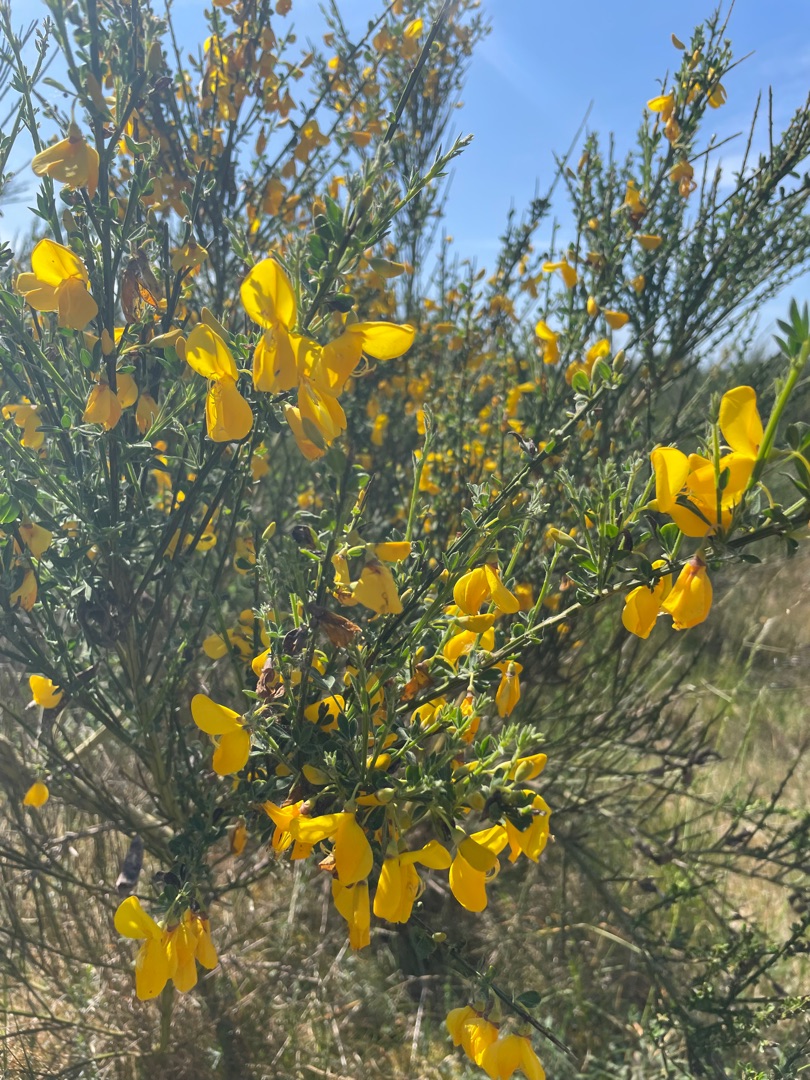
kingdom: Plantae
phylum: Tracheophyta
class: Magnoliopsida
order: Fabales
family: Fabaceae
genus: Cytisus
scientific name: Cytisus scoparius
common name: Almindelig gyvel
